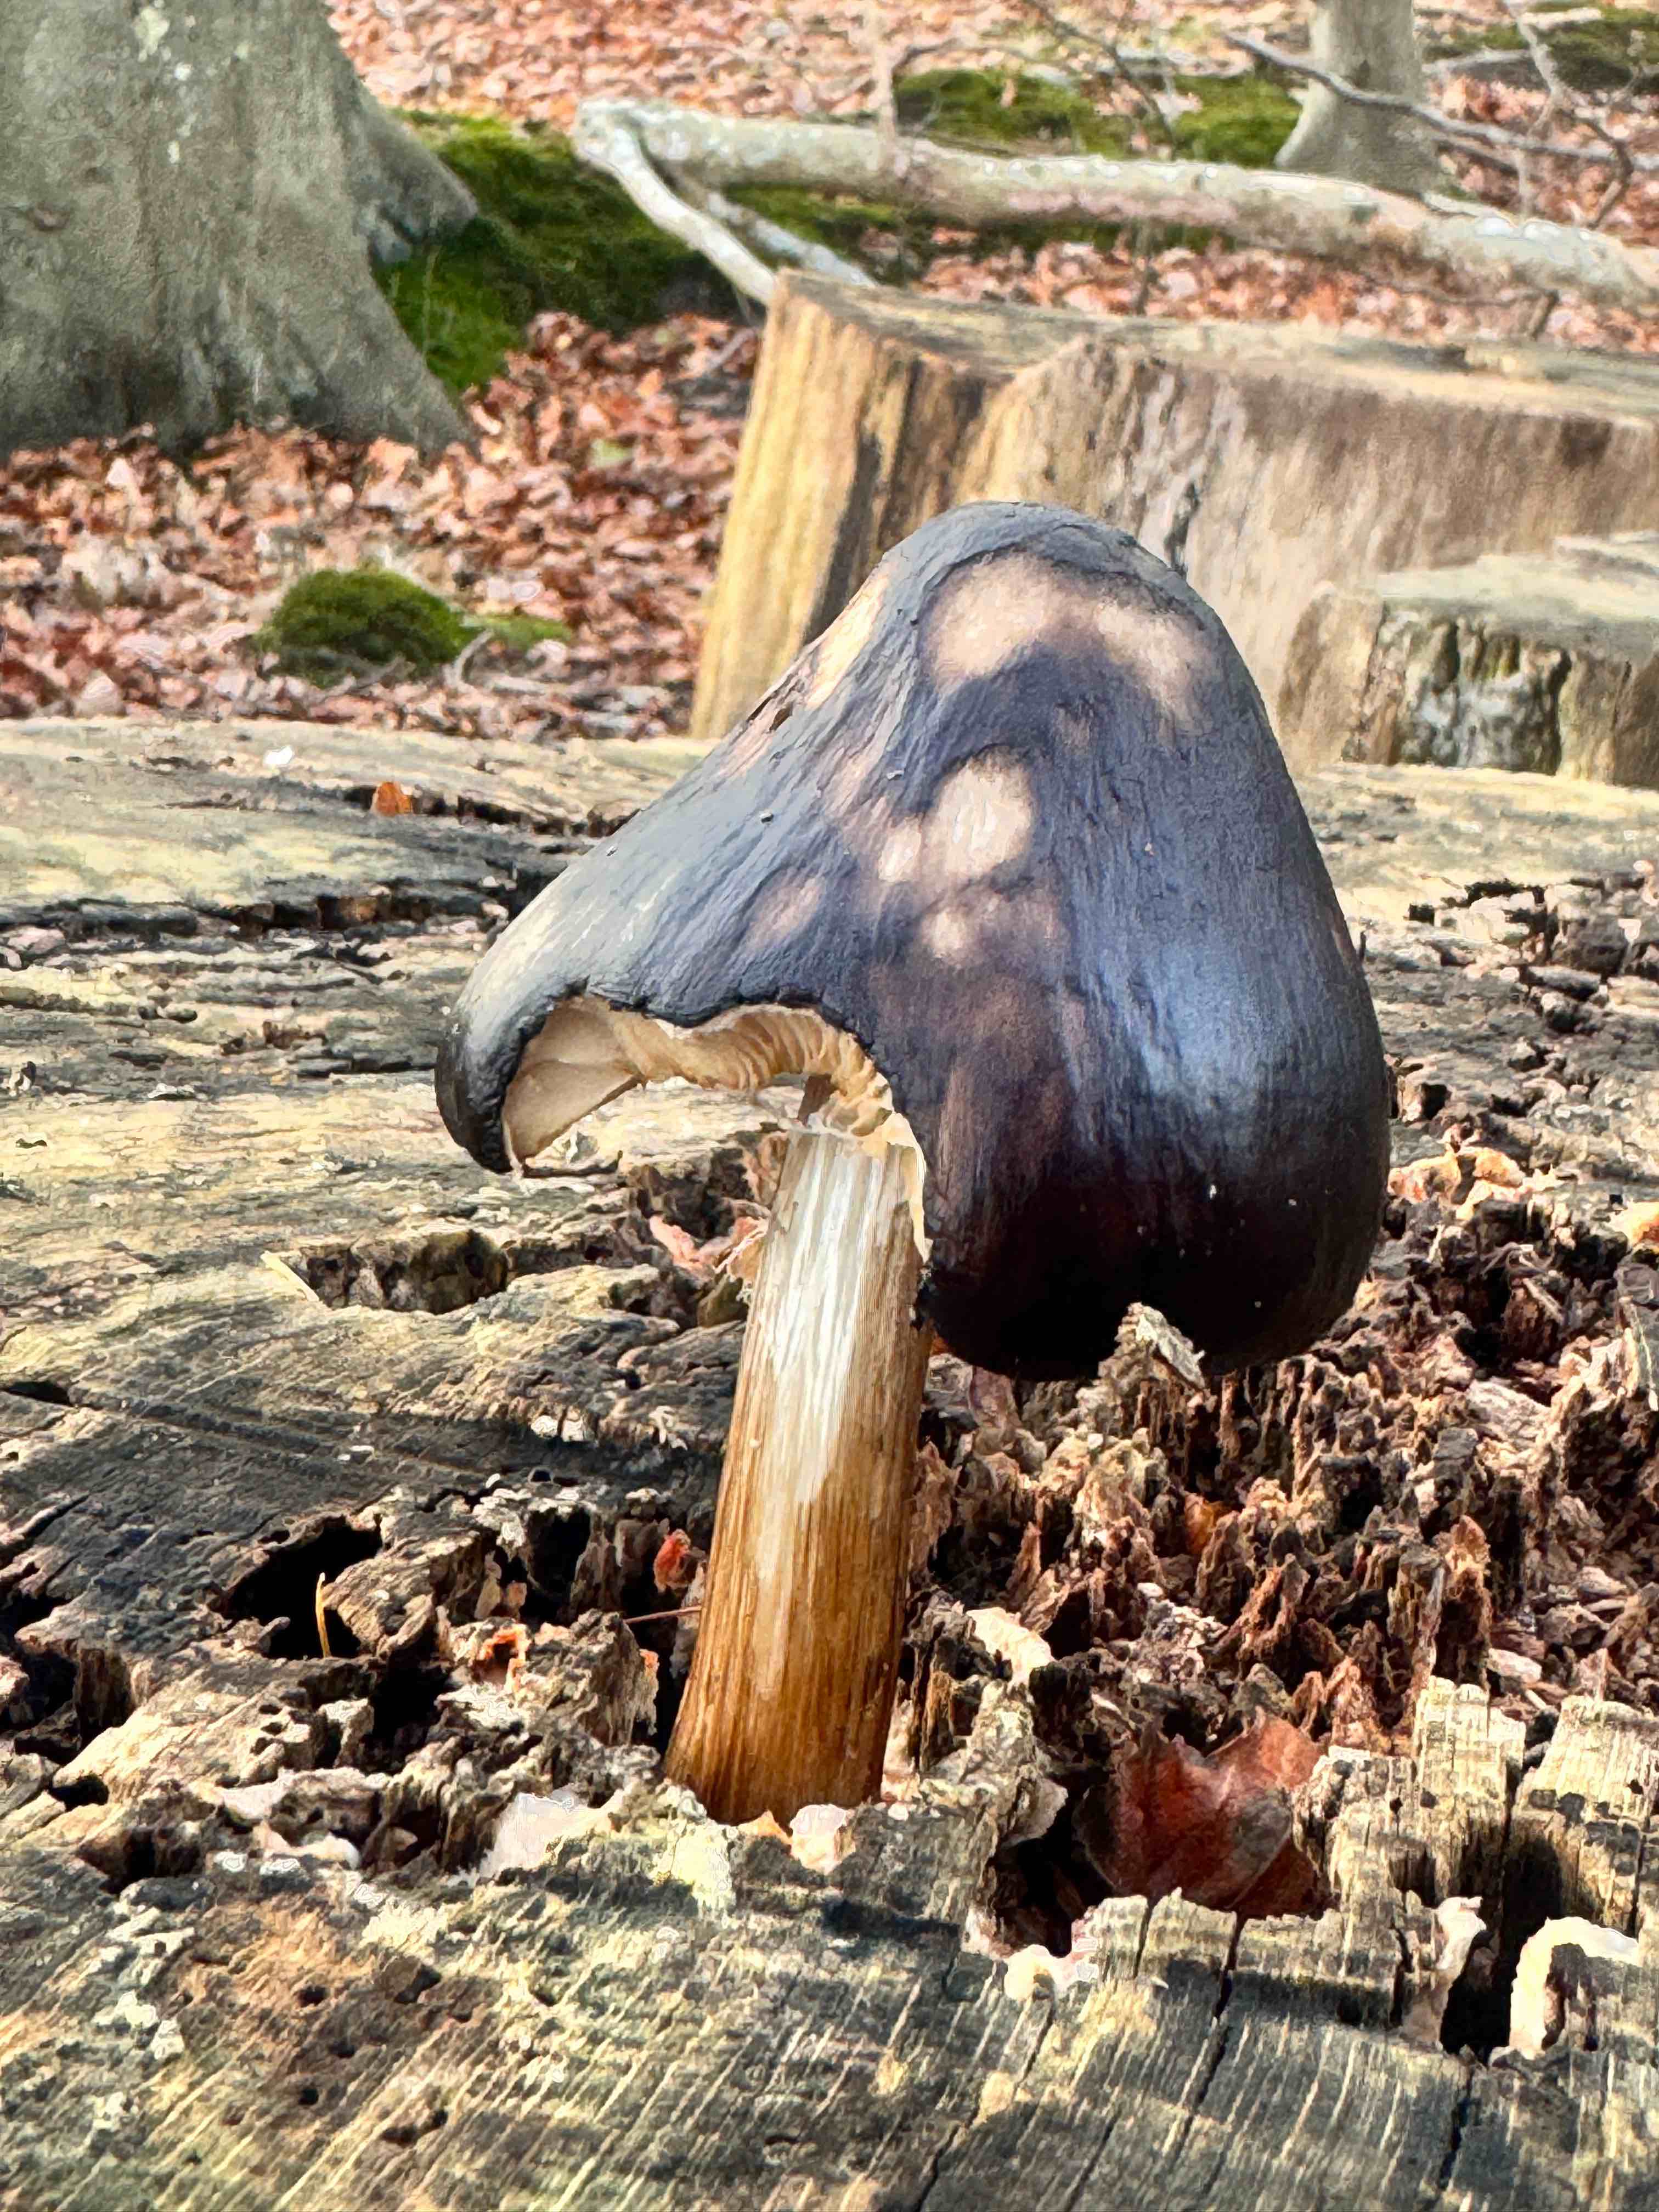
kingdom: Fungi
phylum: Basidiomycota
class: Agaricomycetes
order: Agaricales
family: Pluteaceae
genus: Pluteus
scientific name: Pluteus cervinus
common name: sodfarvet skærmhat
